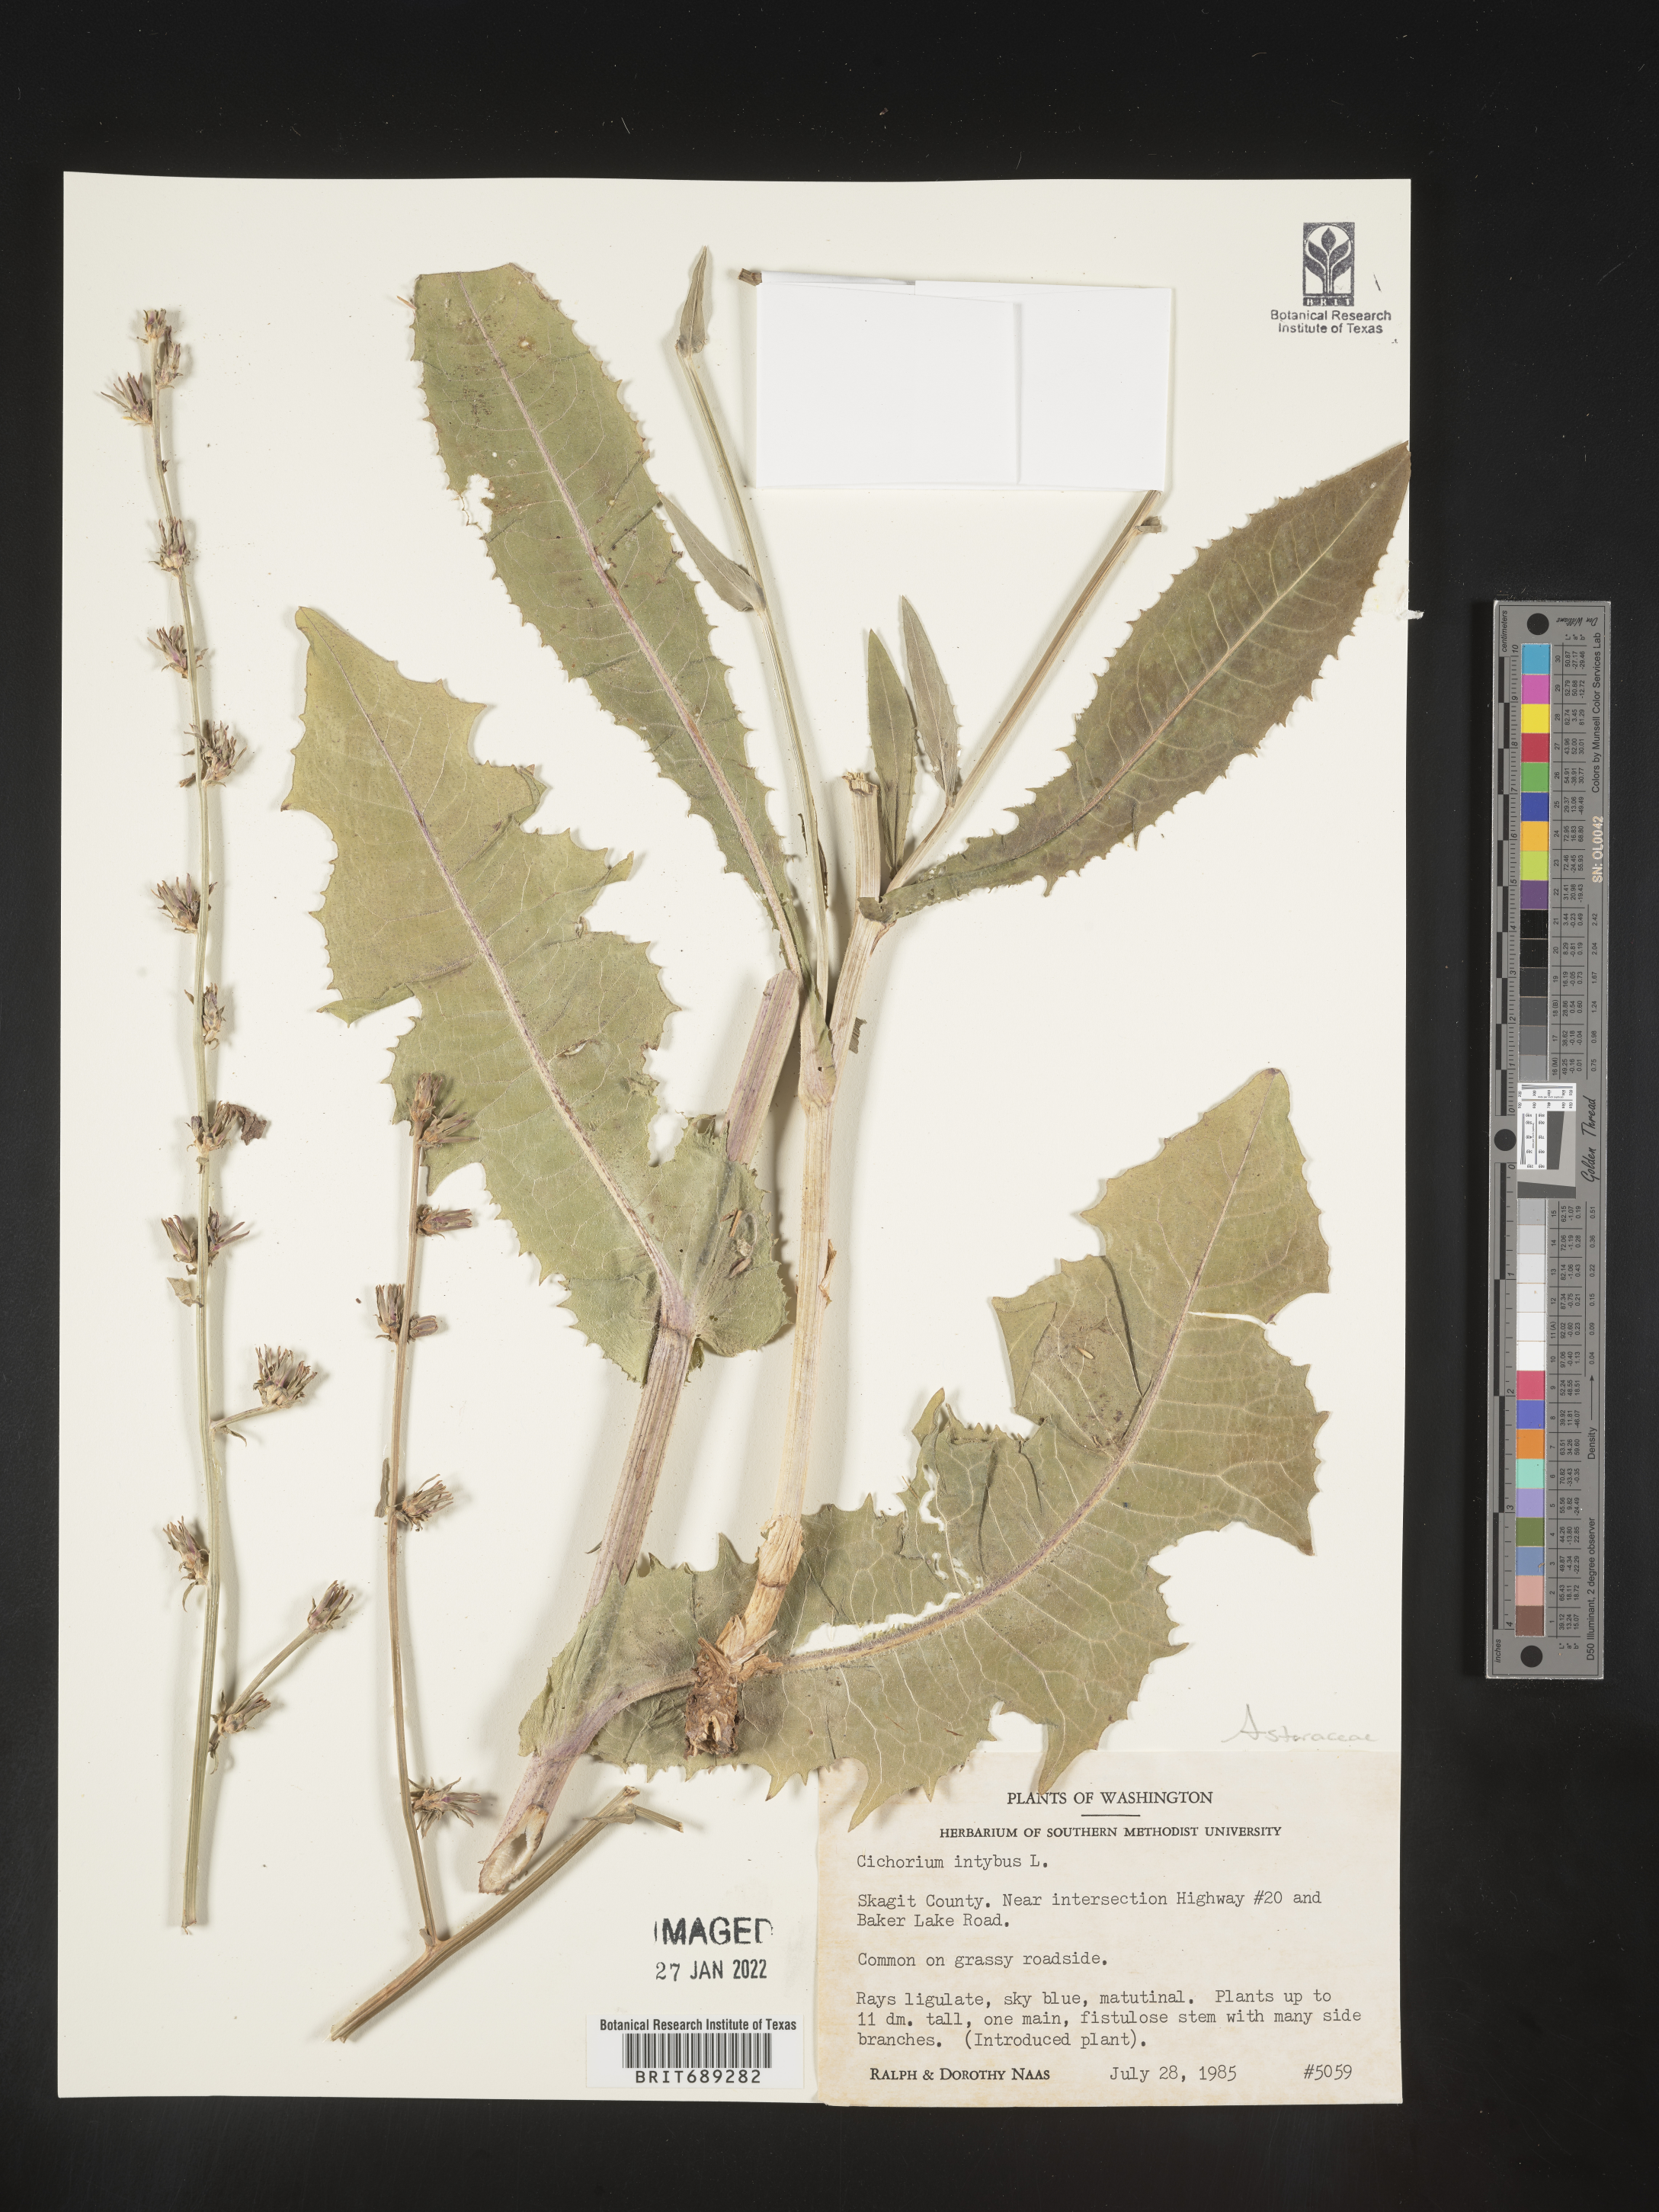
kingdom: Plantae
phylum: Tracheophyta
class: Magnoliopsida
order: Asterales
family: Asteraceae
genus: Cichorium
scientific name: Cichorium intybus
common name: Chicory
